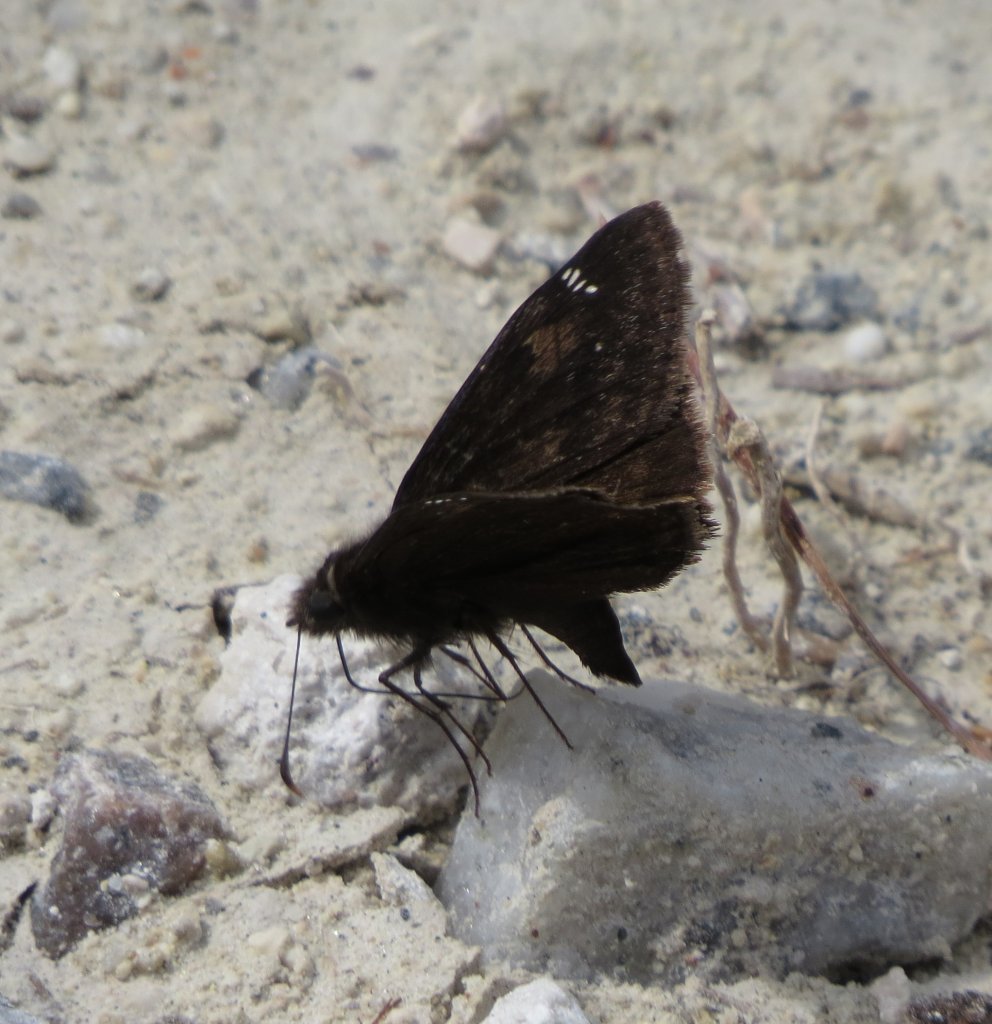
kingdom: Animalia
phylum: Arthropoda
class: Insecta
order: Lepidoptera
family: Hesperiidae
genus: Erynnis
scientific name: Erynnis zarucco
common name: Zarucco Duskywing
